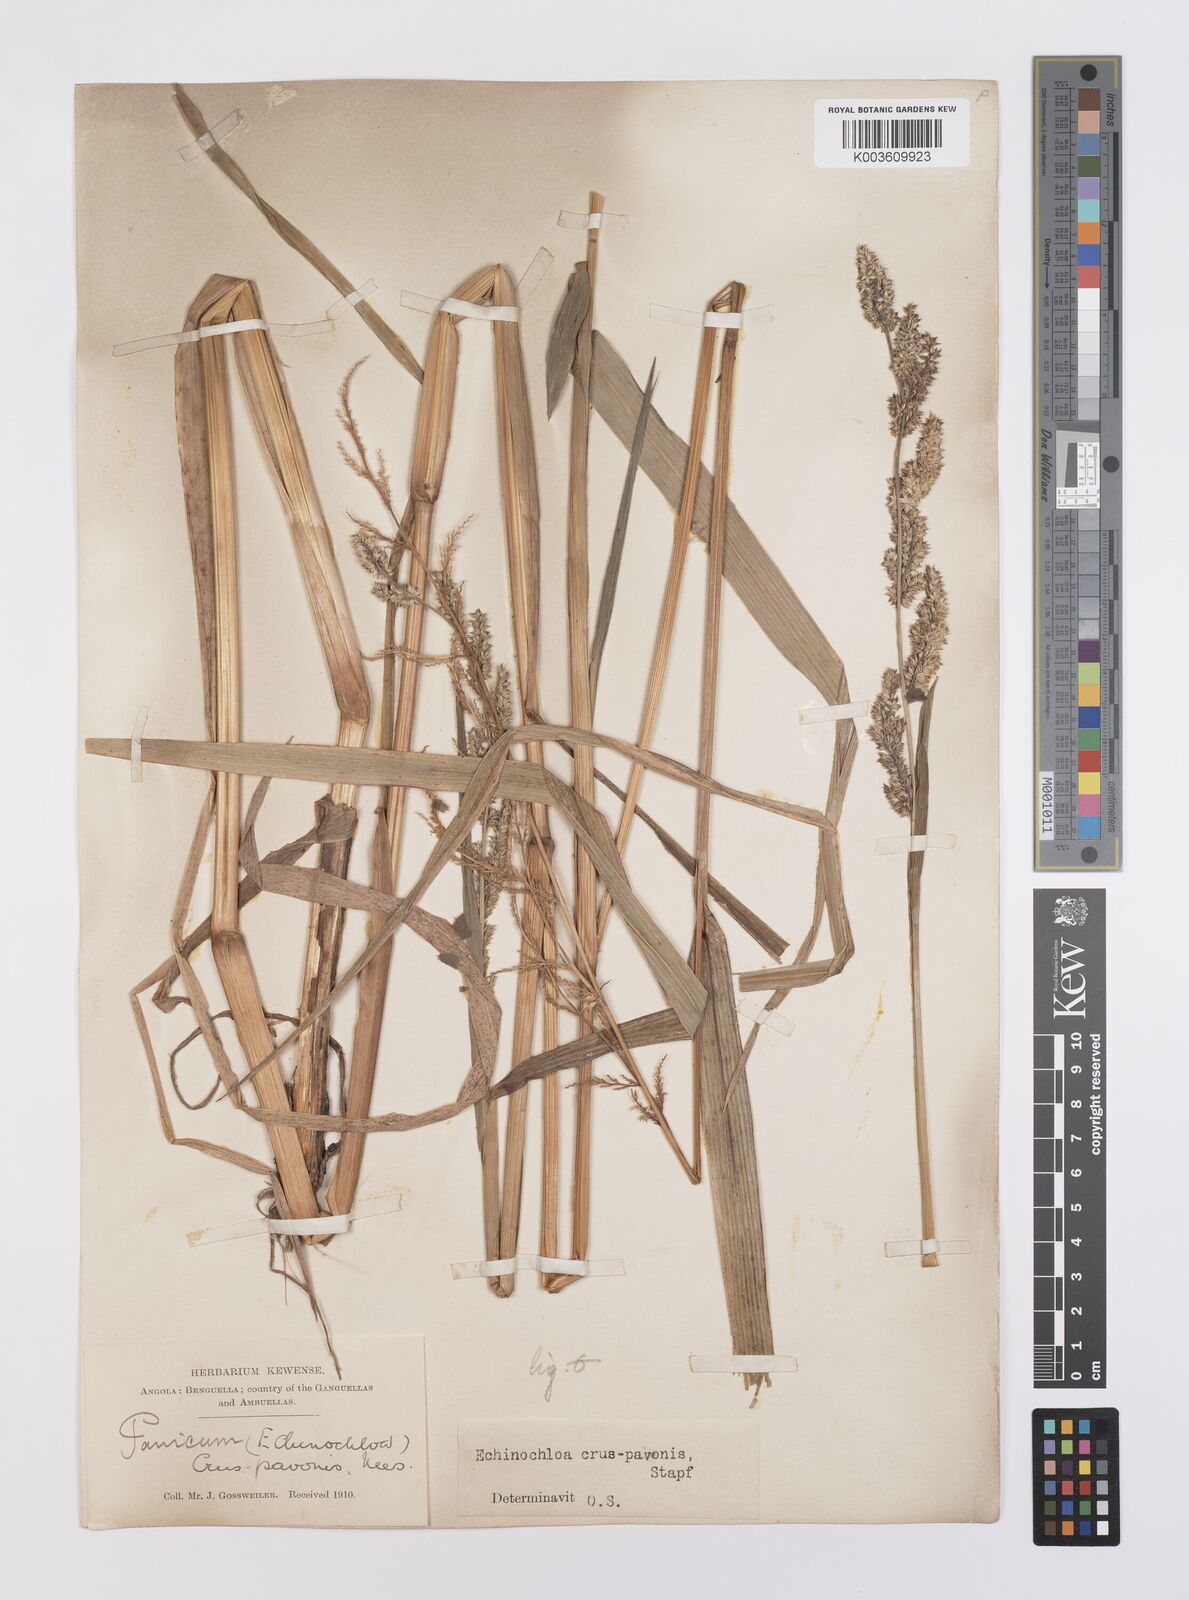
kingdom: Plantae
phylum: Tracheophyta
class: Liliopsida
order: Poales
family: Poaceae
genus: Echinochloa
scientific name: Echinochloa crus-pavonis
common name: Gulf cockspur grass
